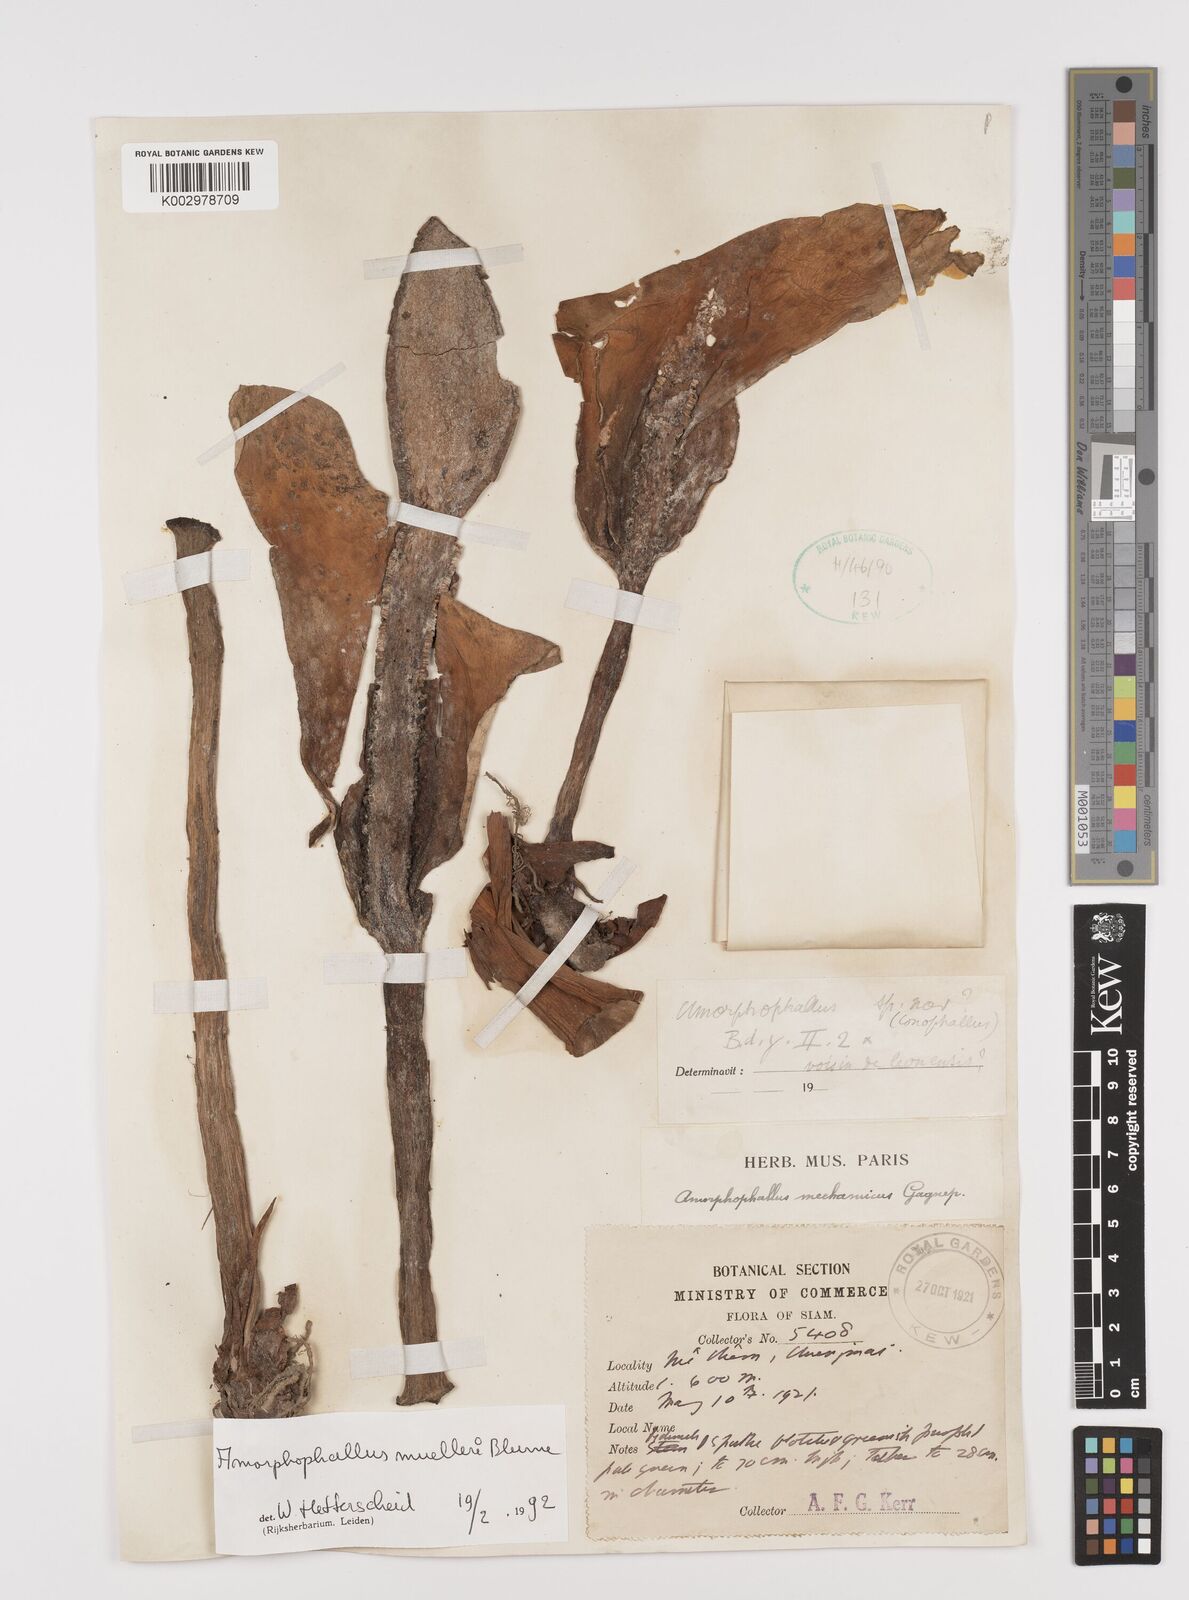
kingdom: Plantae
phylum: Tracheophyta
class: Liliopsida
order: Alismatales
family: Araceae
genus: Amorphophallus
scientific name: Amorphophallus muelleri
